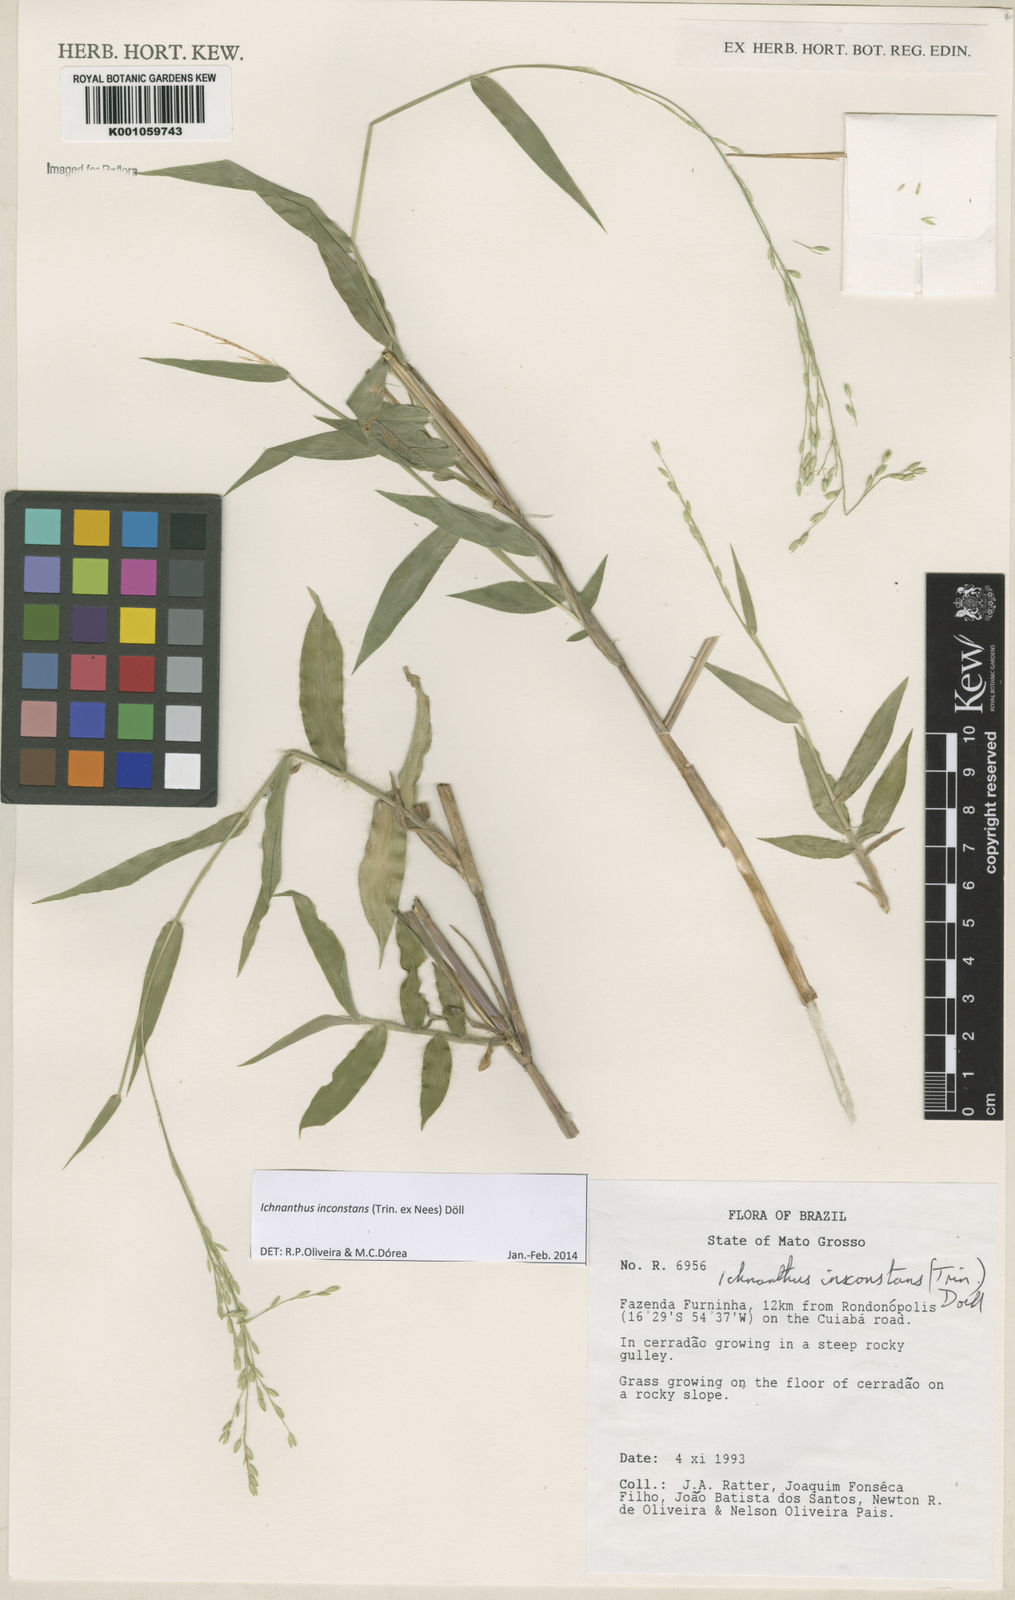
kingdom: Plantae
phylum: Tracheophyta
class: Liliopsida
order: Poales
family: Poaceae
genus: Ichnanthus
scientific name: Ichnanthus
